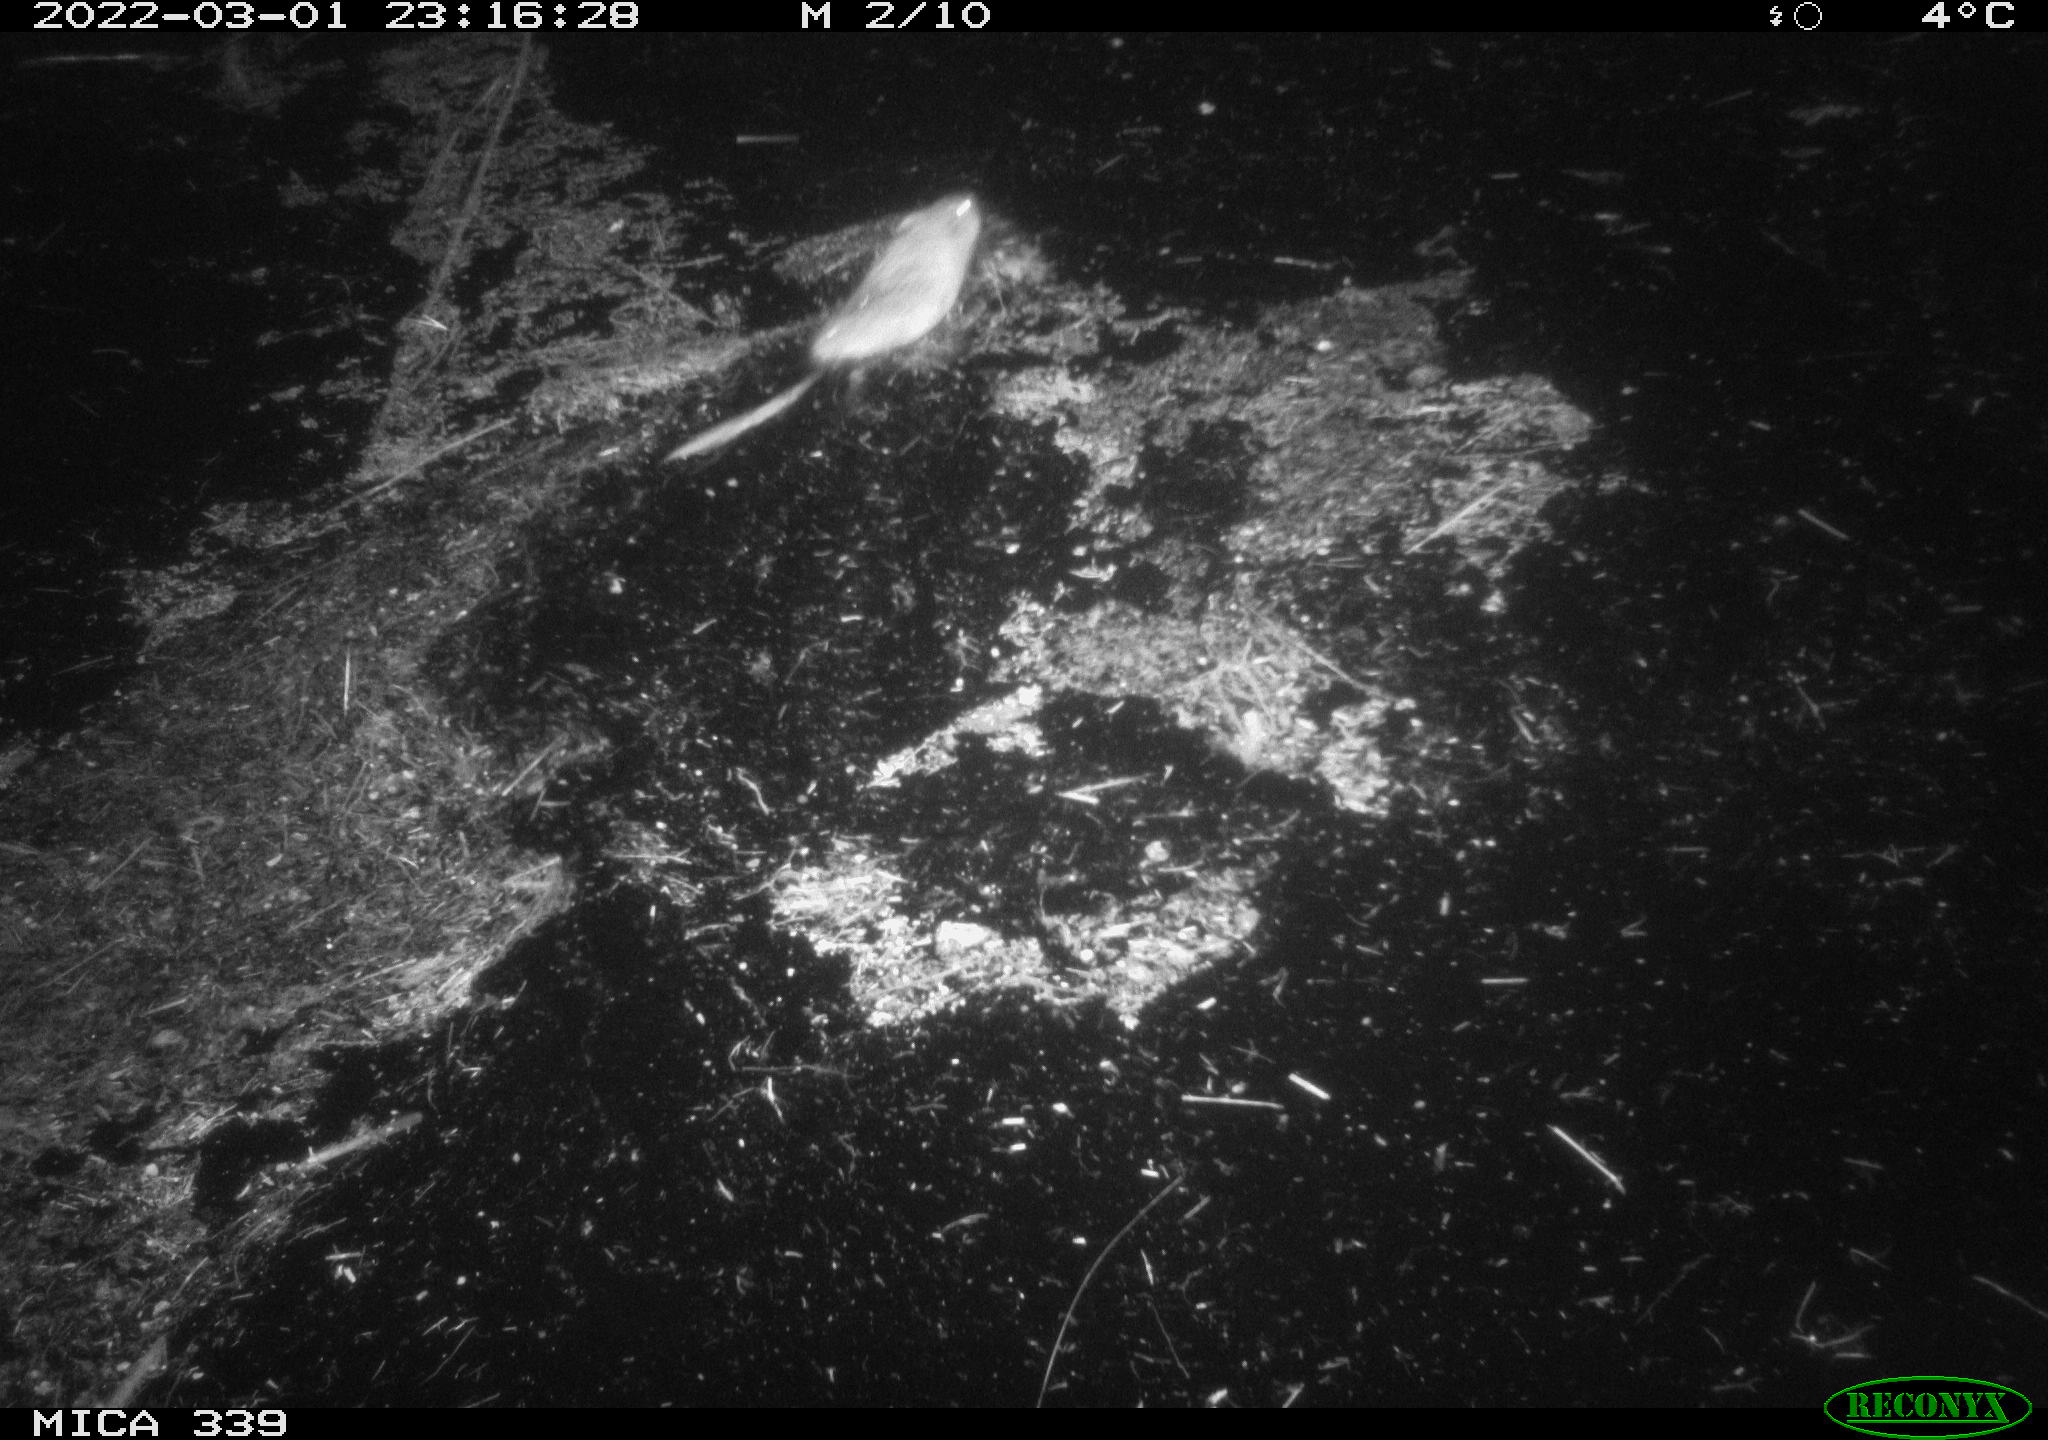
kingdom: Animalia
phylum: Chordata
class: Mammalia
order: Rodentia
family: Muridae
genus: Rattus
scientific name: Rattus norvegicus
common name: Brown rat
